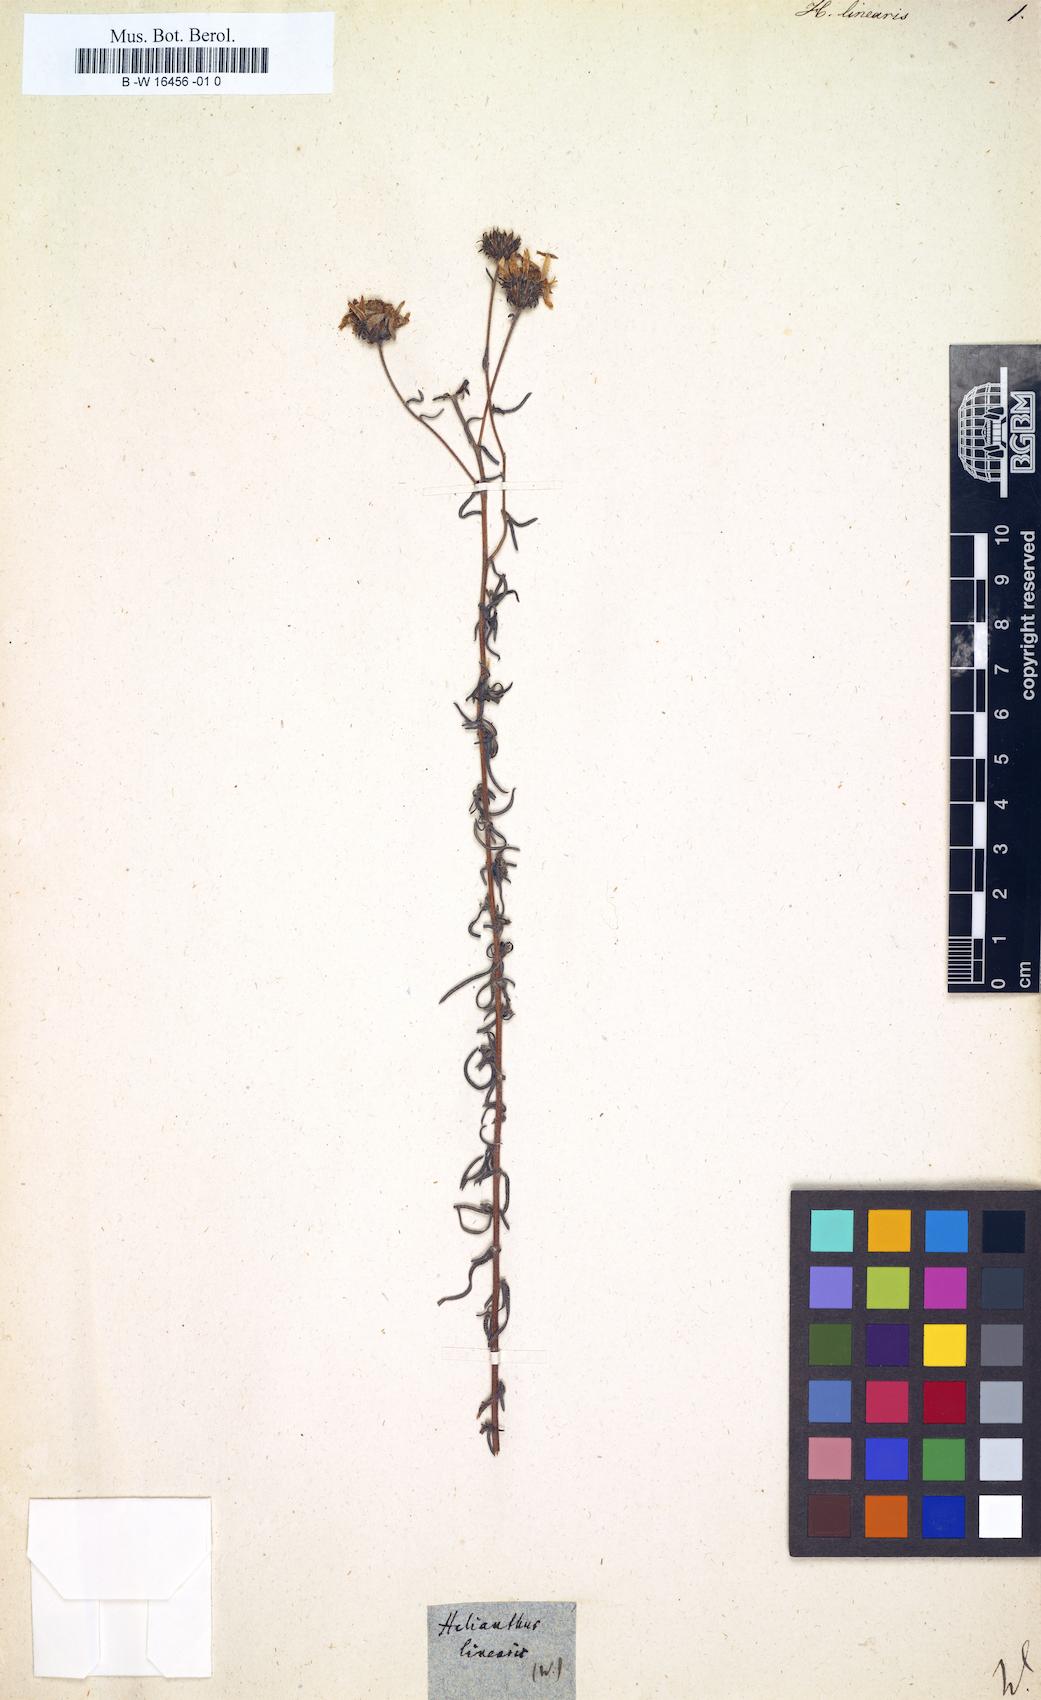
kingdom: Plantae
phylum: Tracheophyta
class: Magnoliopsida
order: Asterales
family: Asteraceae
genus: Aldama
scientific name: Aldama linearis
